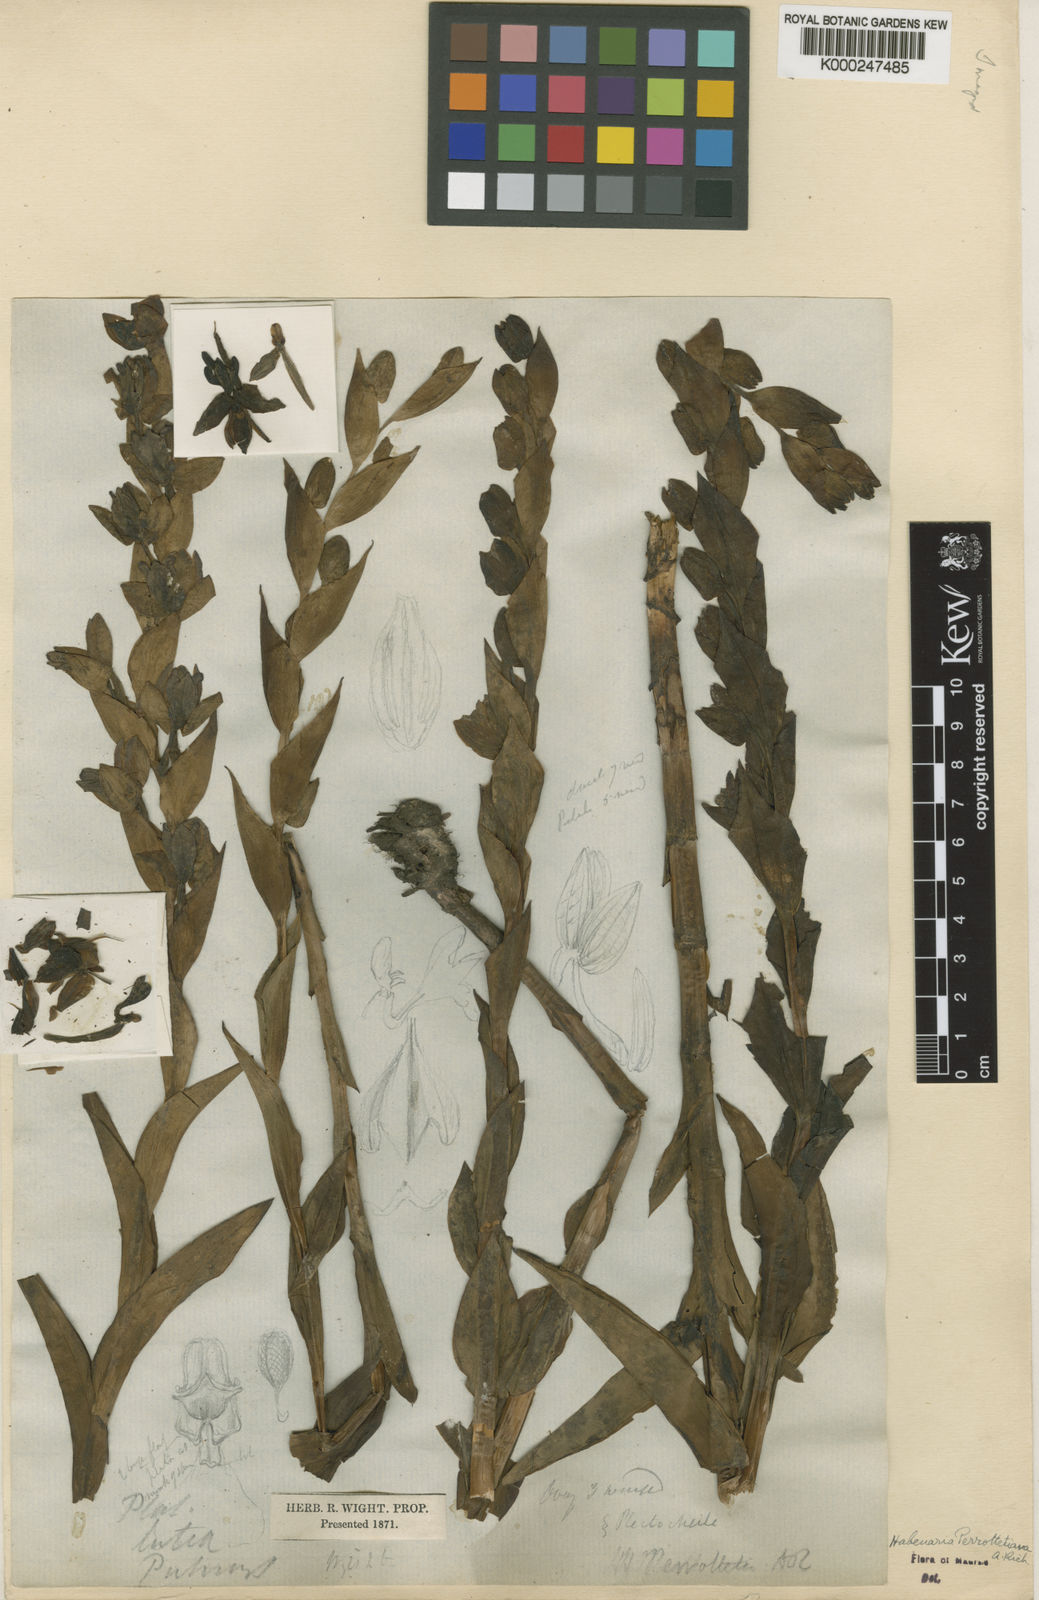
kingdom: Plantae
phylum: Tracheophyta
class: Liliopsida
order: Asparagales
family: Orchidaceae
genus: Habenaria
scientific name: Habenaria perrottetiana
